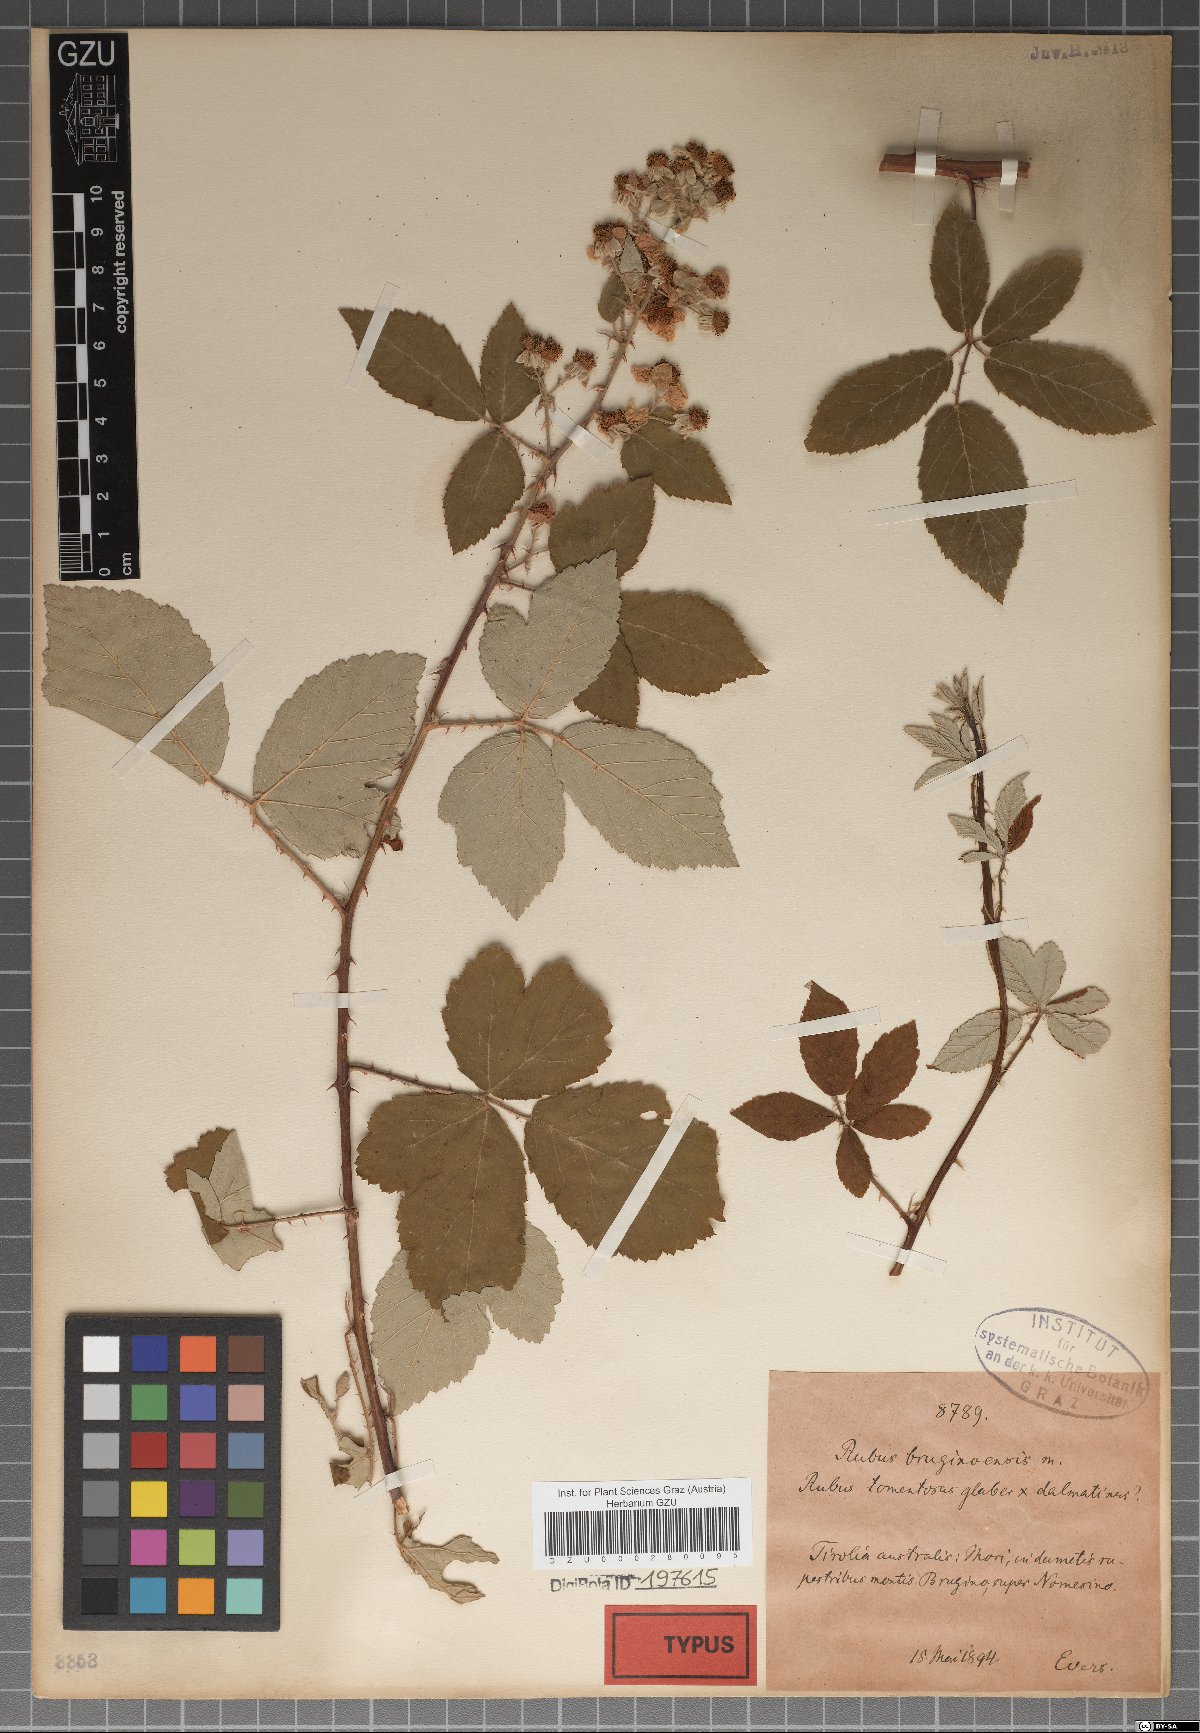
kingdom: Plantae
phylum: Tracheophyta
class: Magnoliopsida
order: Rosales
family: Rosaceae
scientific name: Rosaceae
